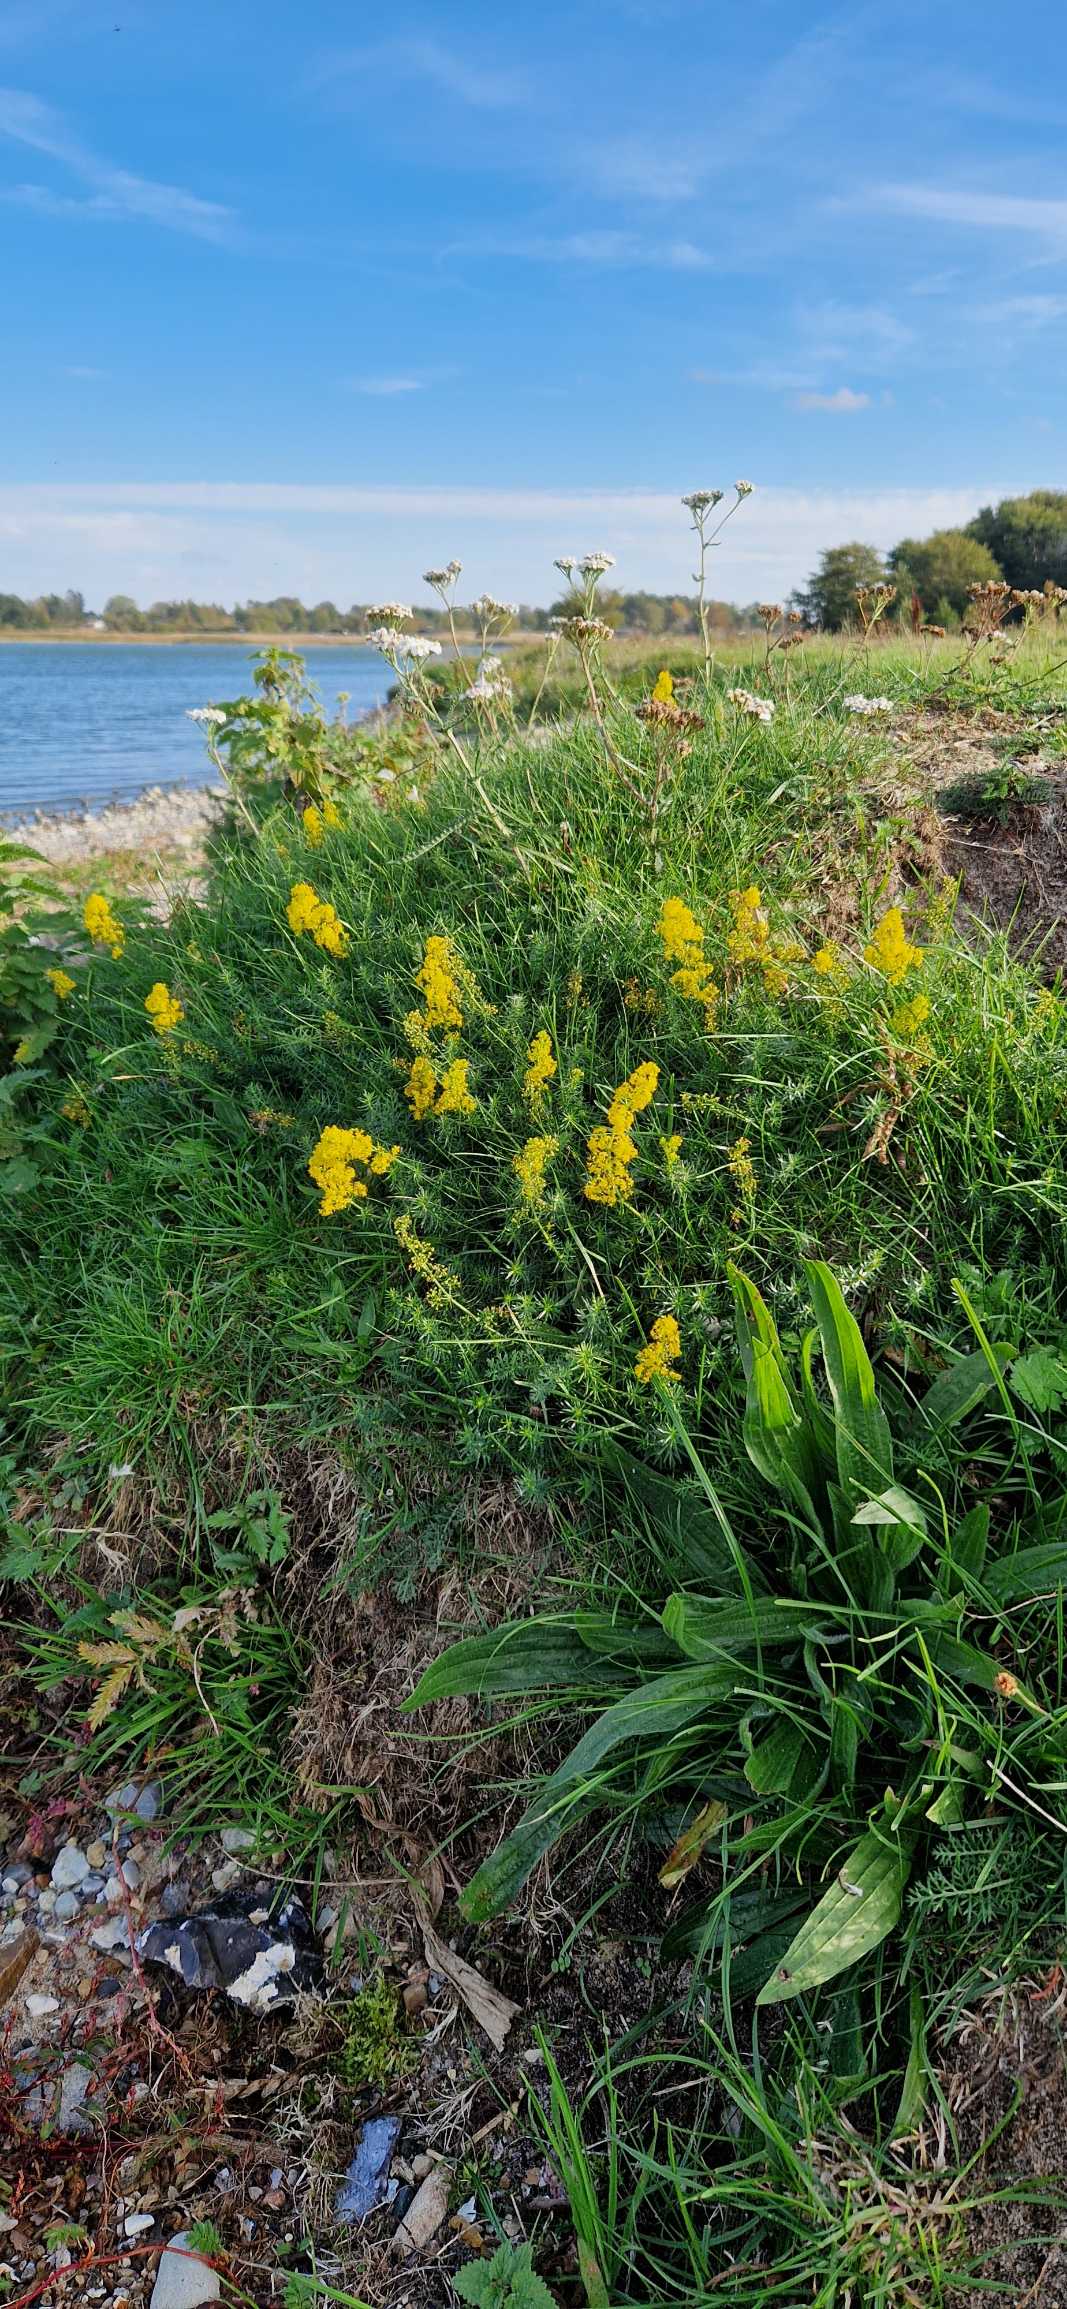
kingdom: Plantae
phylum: Tracheophyta
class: Magnoliopsida
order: Gentianales
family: Rubiaceae
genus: Galium
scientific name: Galium verum
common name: Gul snerre
